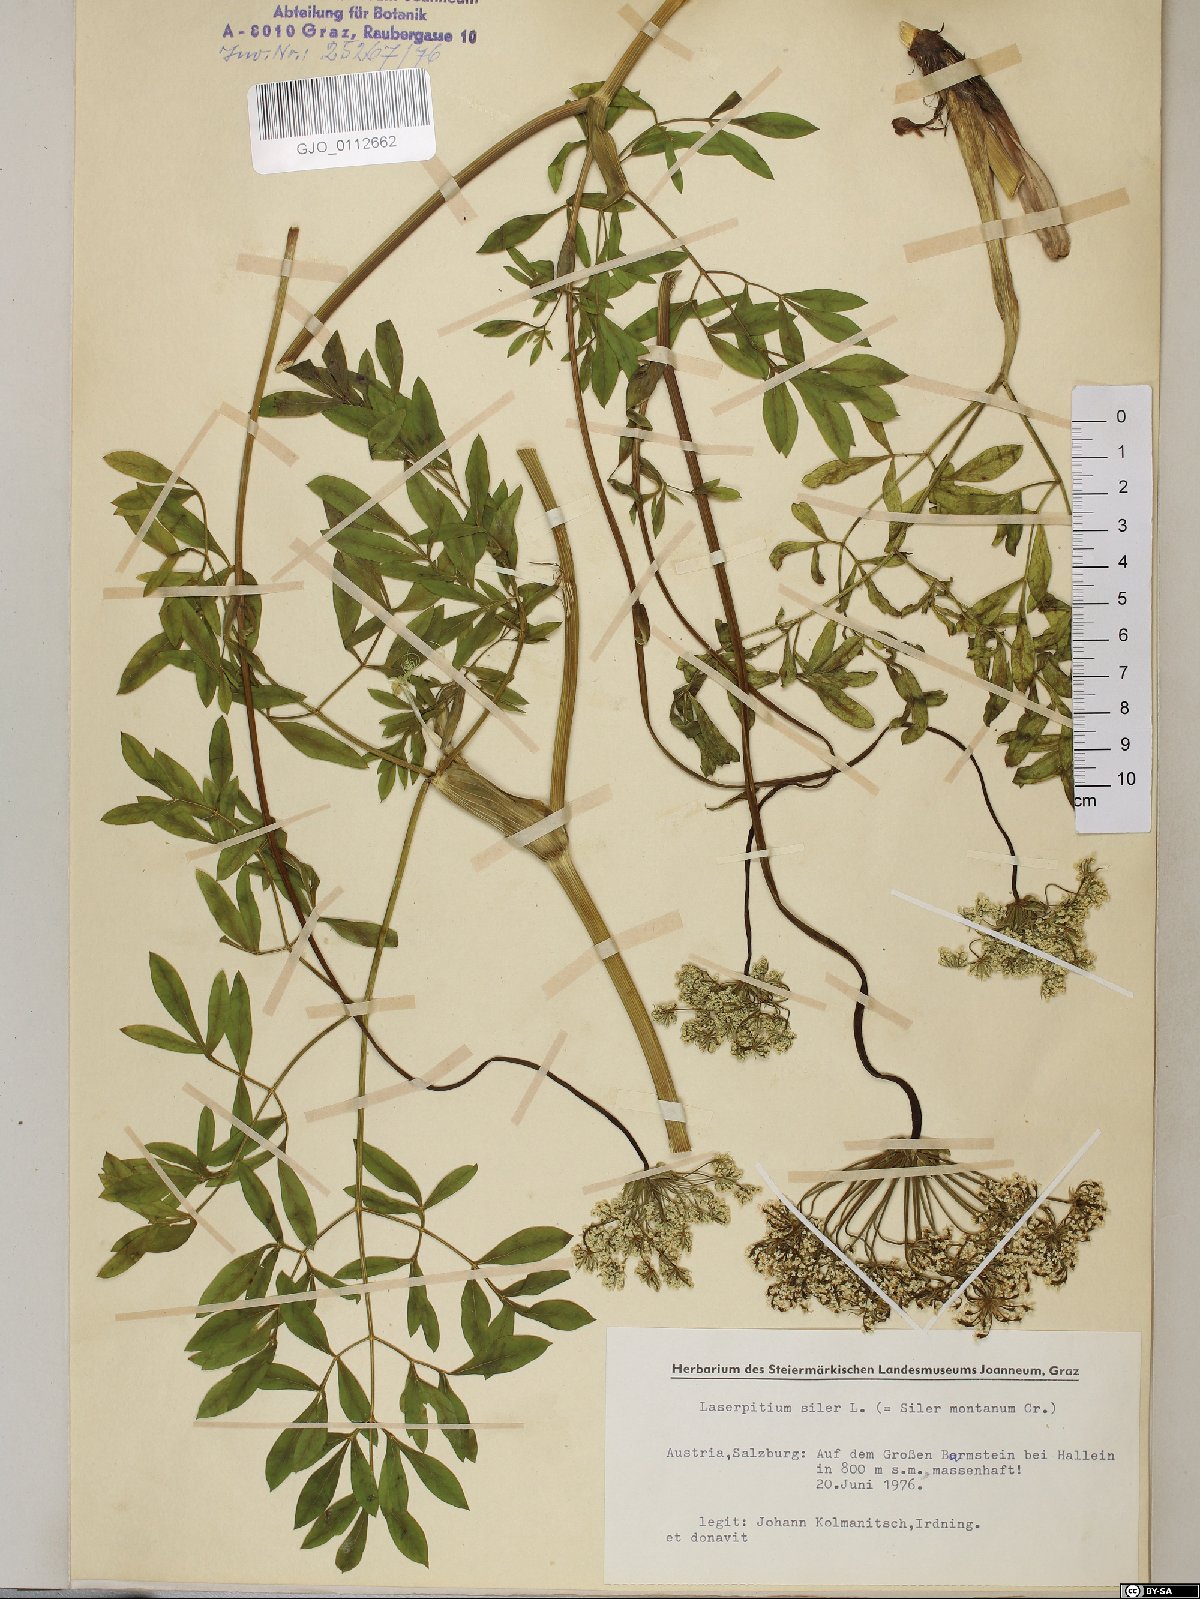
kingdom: Plantae
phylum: Tracheophyta
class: Magnoliopsida
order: Apiales
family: Apiaceae
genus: Siler
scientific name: Siler montanum
